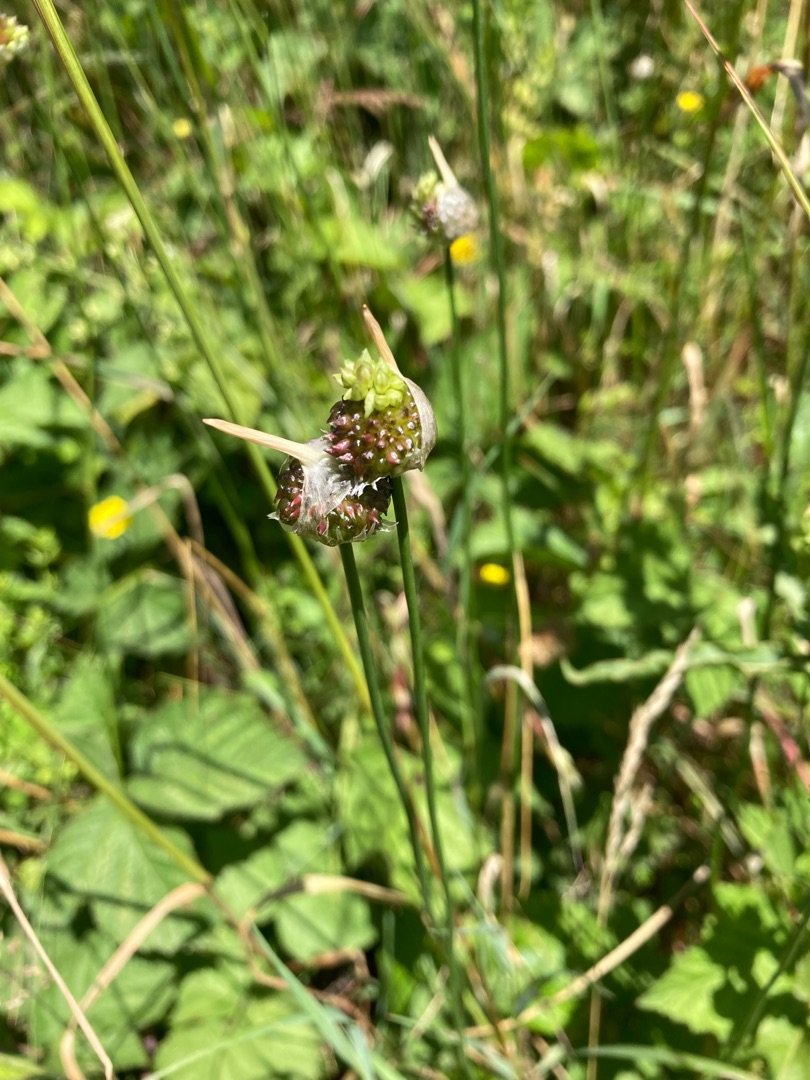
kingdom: Plantae
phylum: Tracheophyta
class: Liliopsida
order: Asparagales
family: Amaryllidaceae
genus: Allium
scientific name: Allium vineale
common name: Sand-løg
